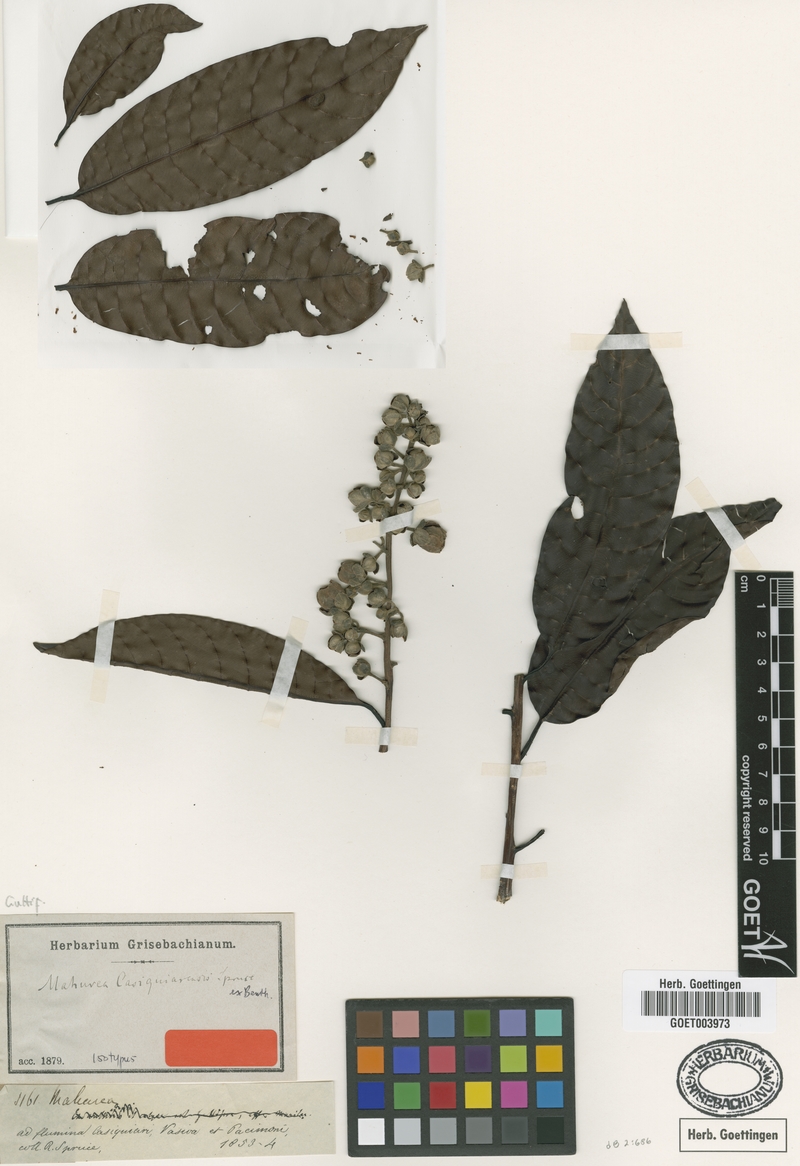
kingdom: Plantae
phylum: Tracheophyta
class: Magnoliopsida
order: Malpighiales
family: Calophyllaceae
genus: Mahurea
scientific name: Mahurea exstipulata
